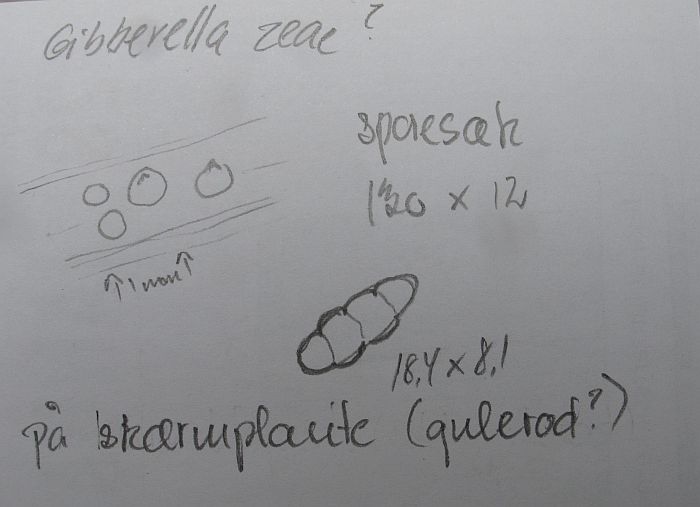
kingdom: Fungi
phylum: Ascomycota
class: Dothideomycetes
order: Pleosporales
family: Leptosphaeriaceae
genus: Plenodomus
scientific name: Plenodomus libanotidis
